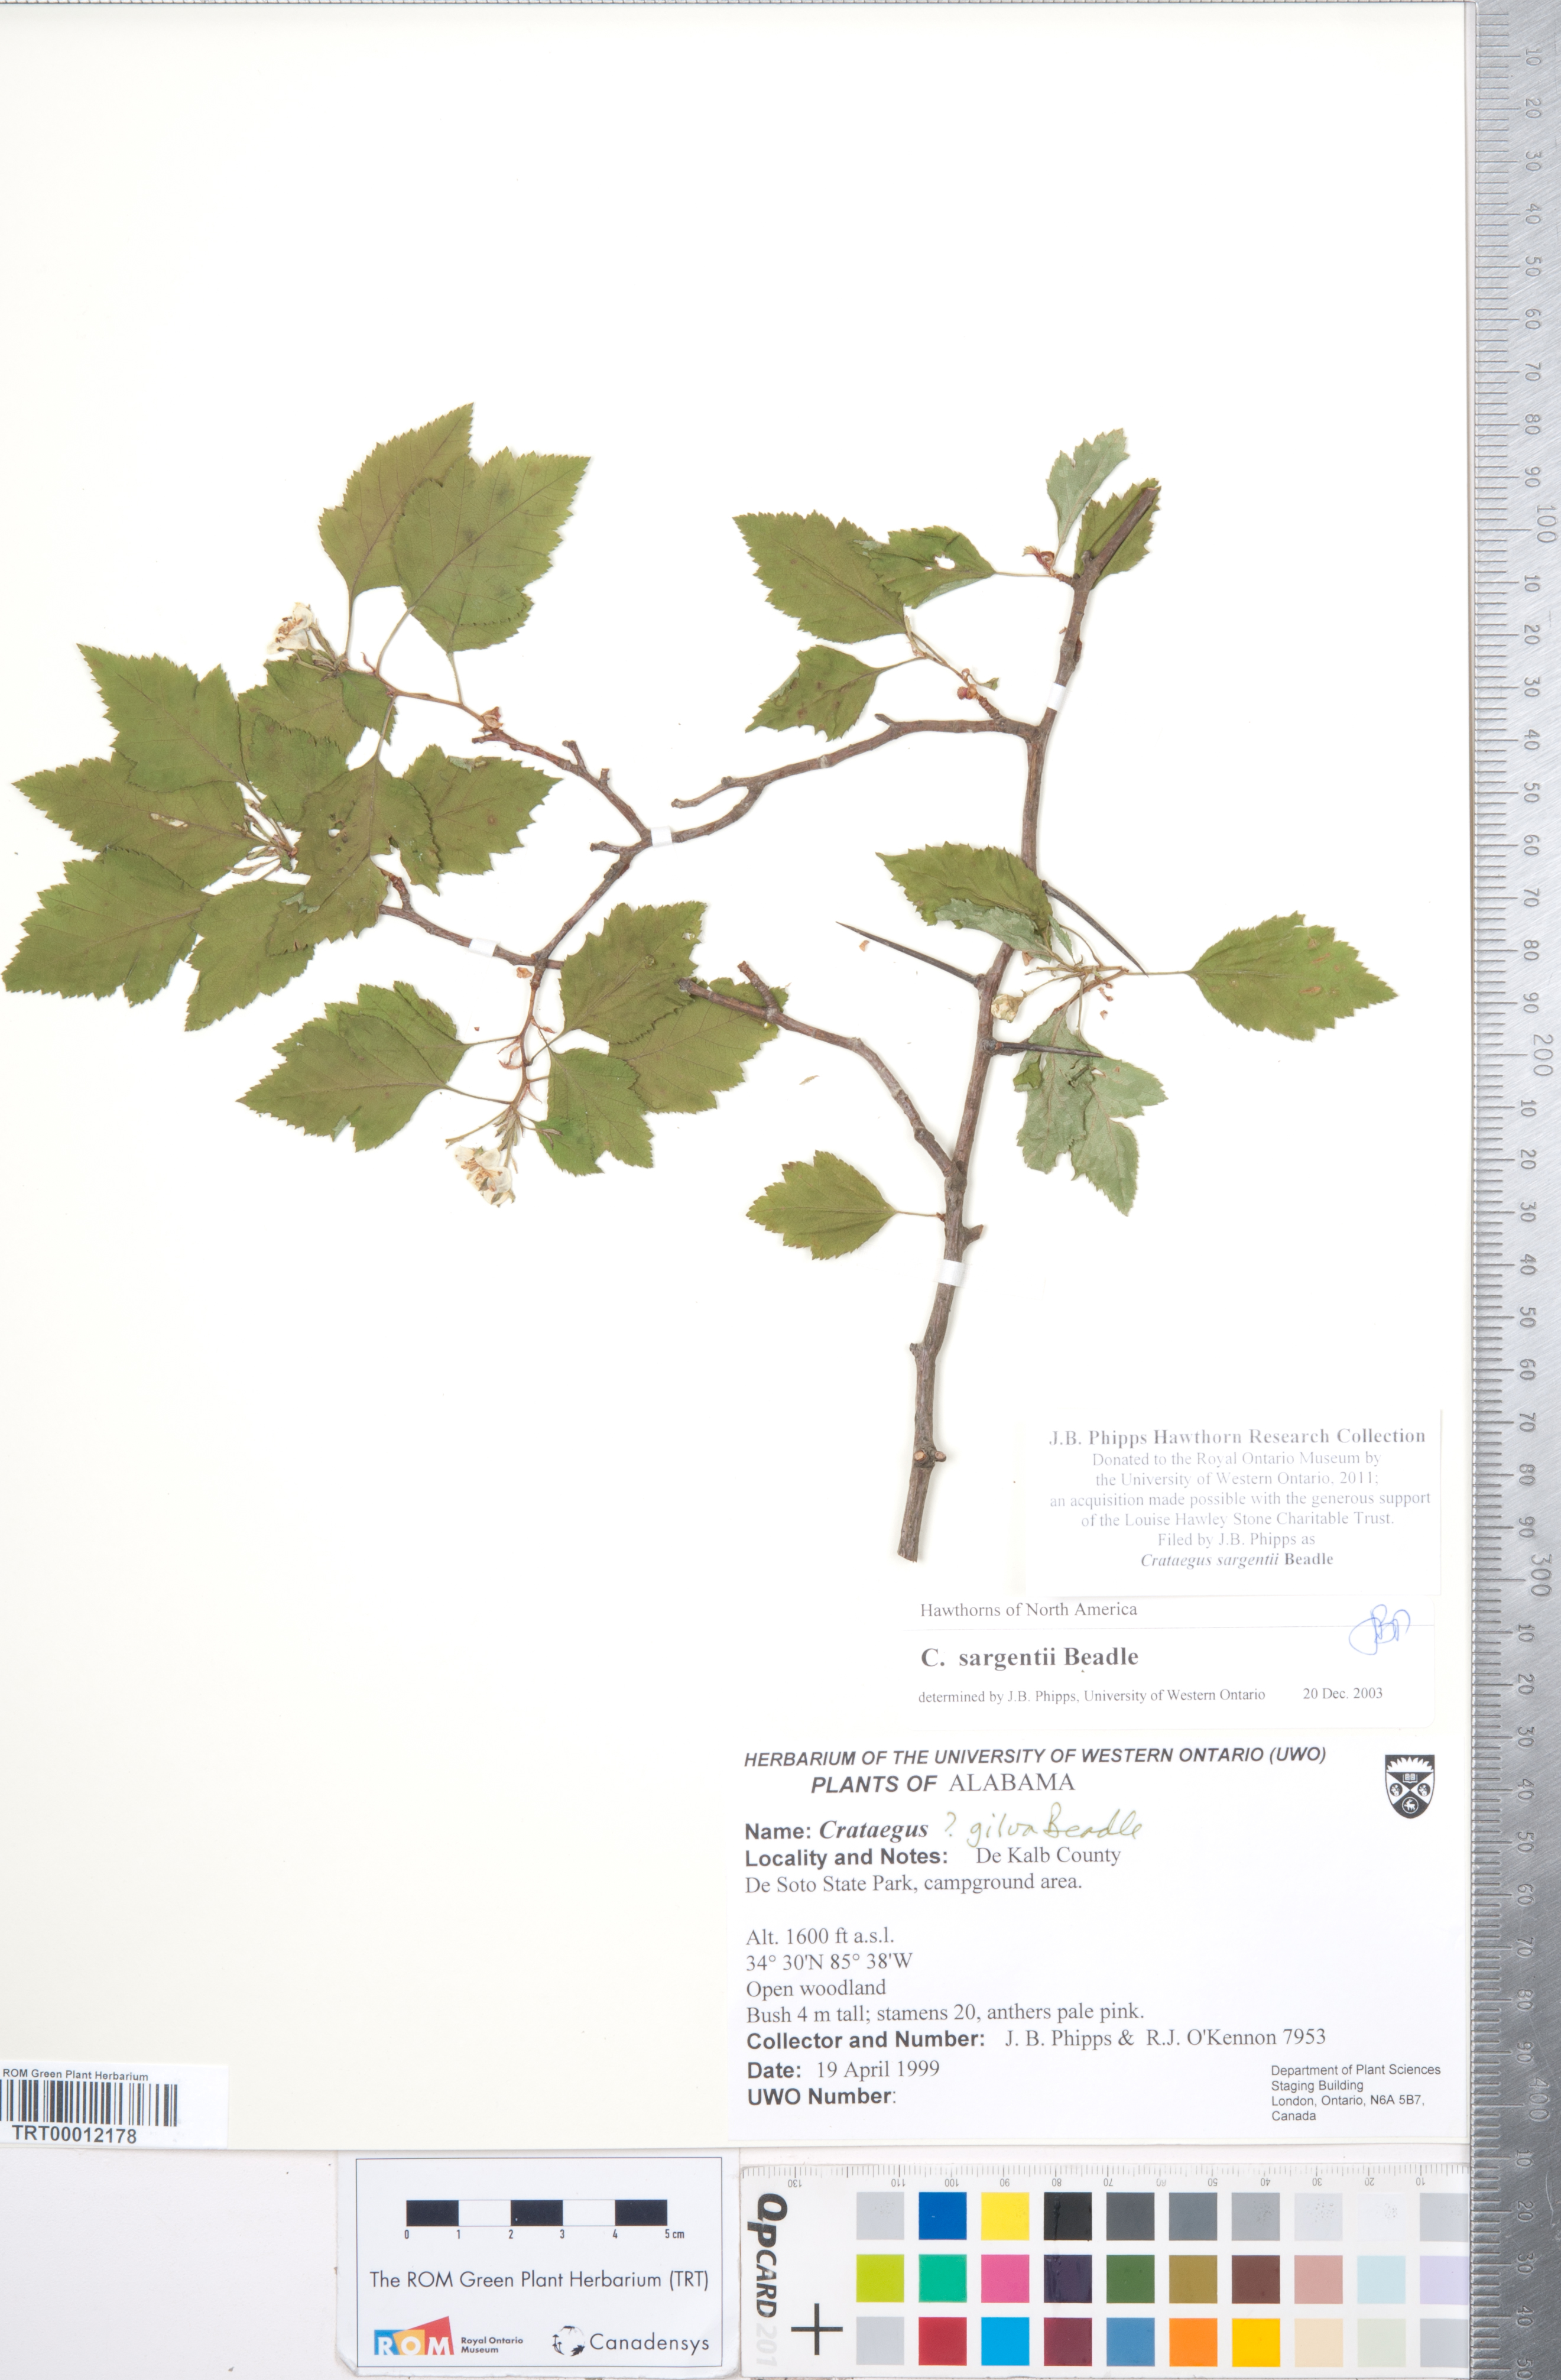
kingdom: Plantae
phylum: Tracheophyta
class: Magnoliopsida
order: Rosales
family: Rosaceae
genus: Crataegus
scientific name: Crataegus sargentii
